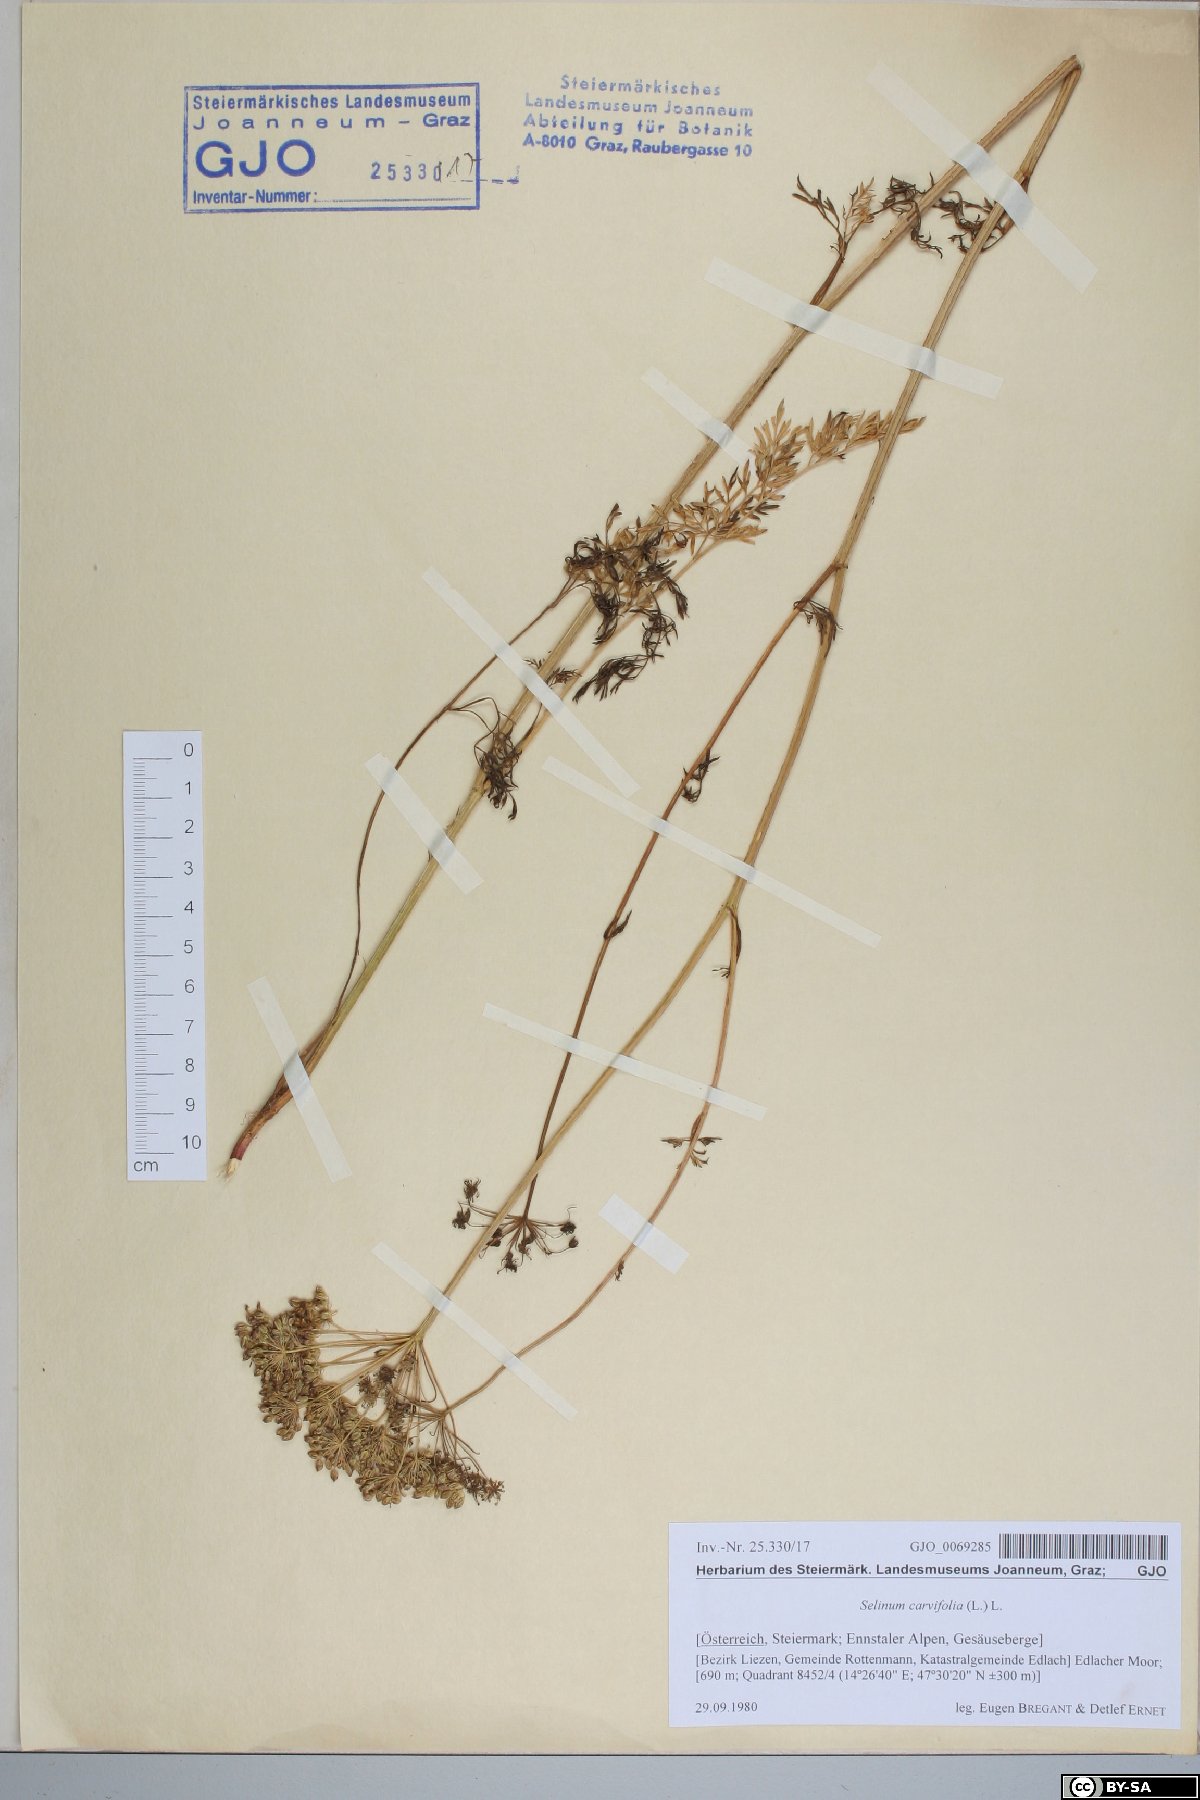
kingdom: Plantae
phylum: Tracheophyta
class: Magnoliopsida
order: Apiales
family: Apiaceae
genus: Selinum
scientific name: Selinum carvifolia
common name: Cambridge milk-parsley
